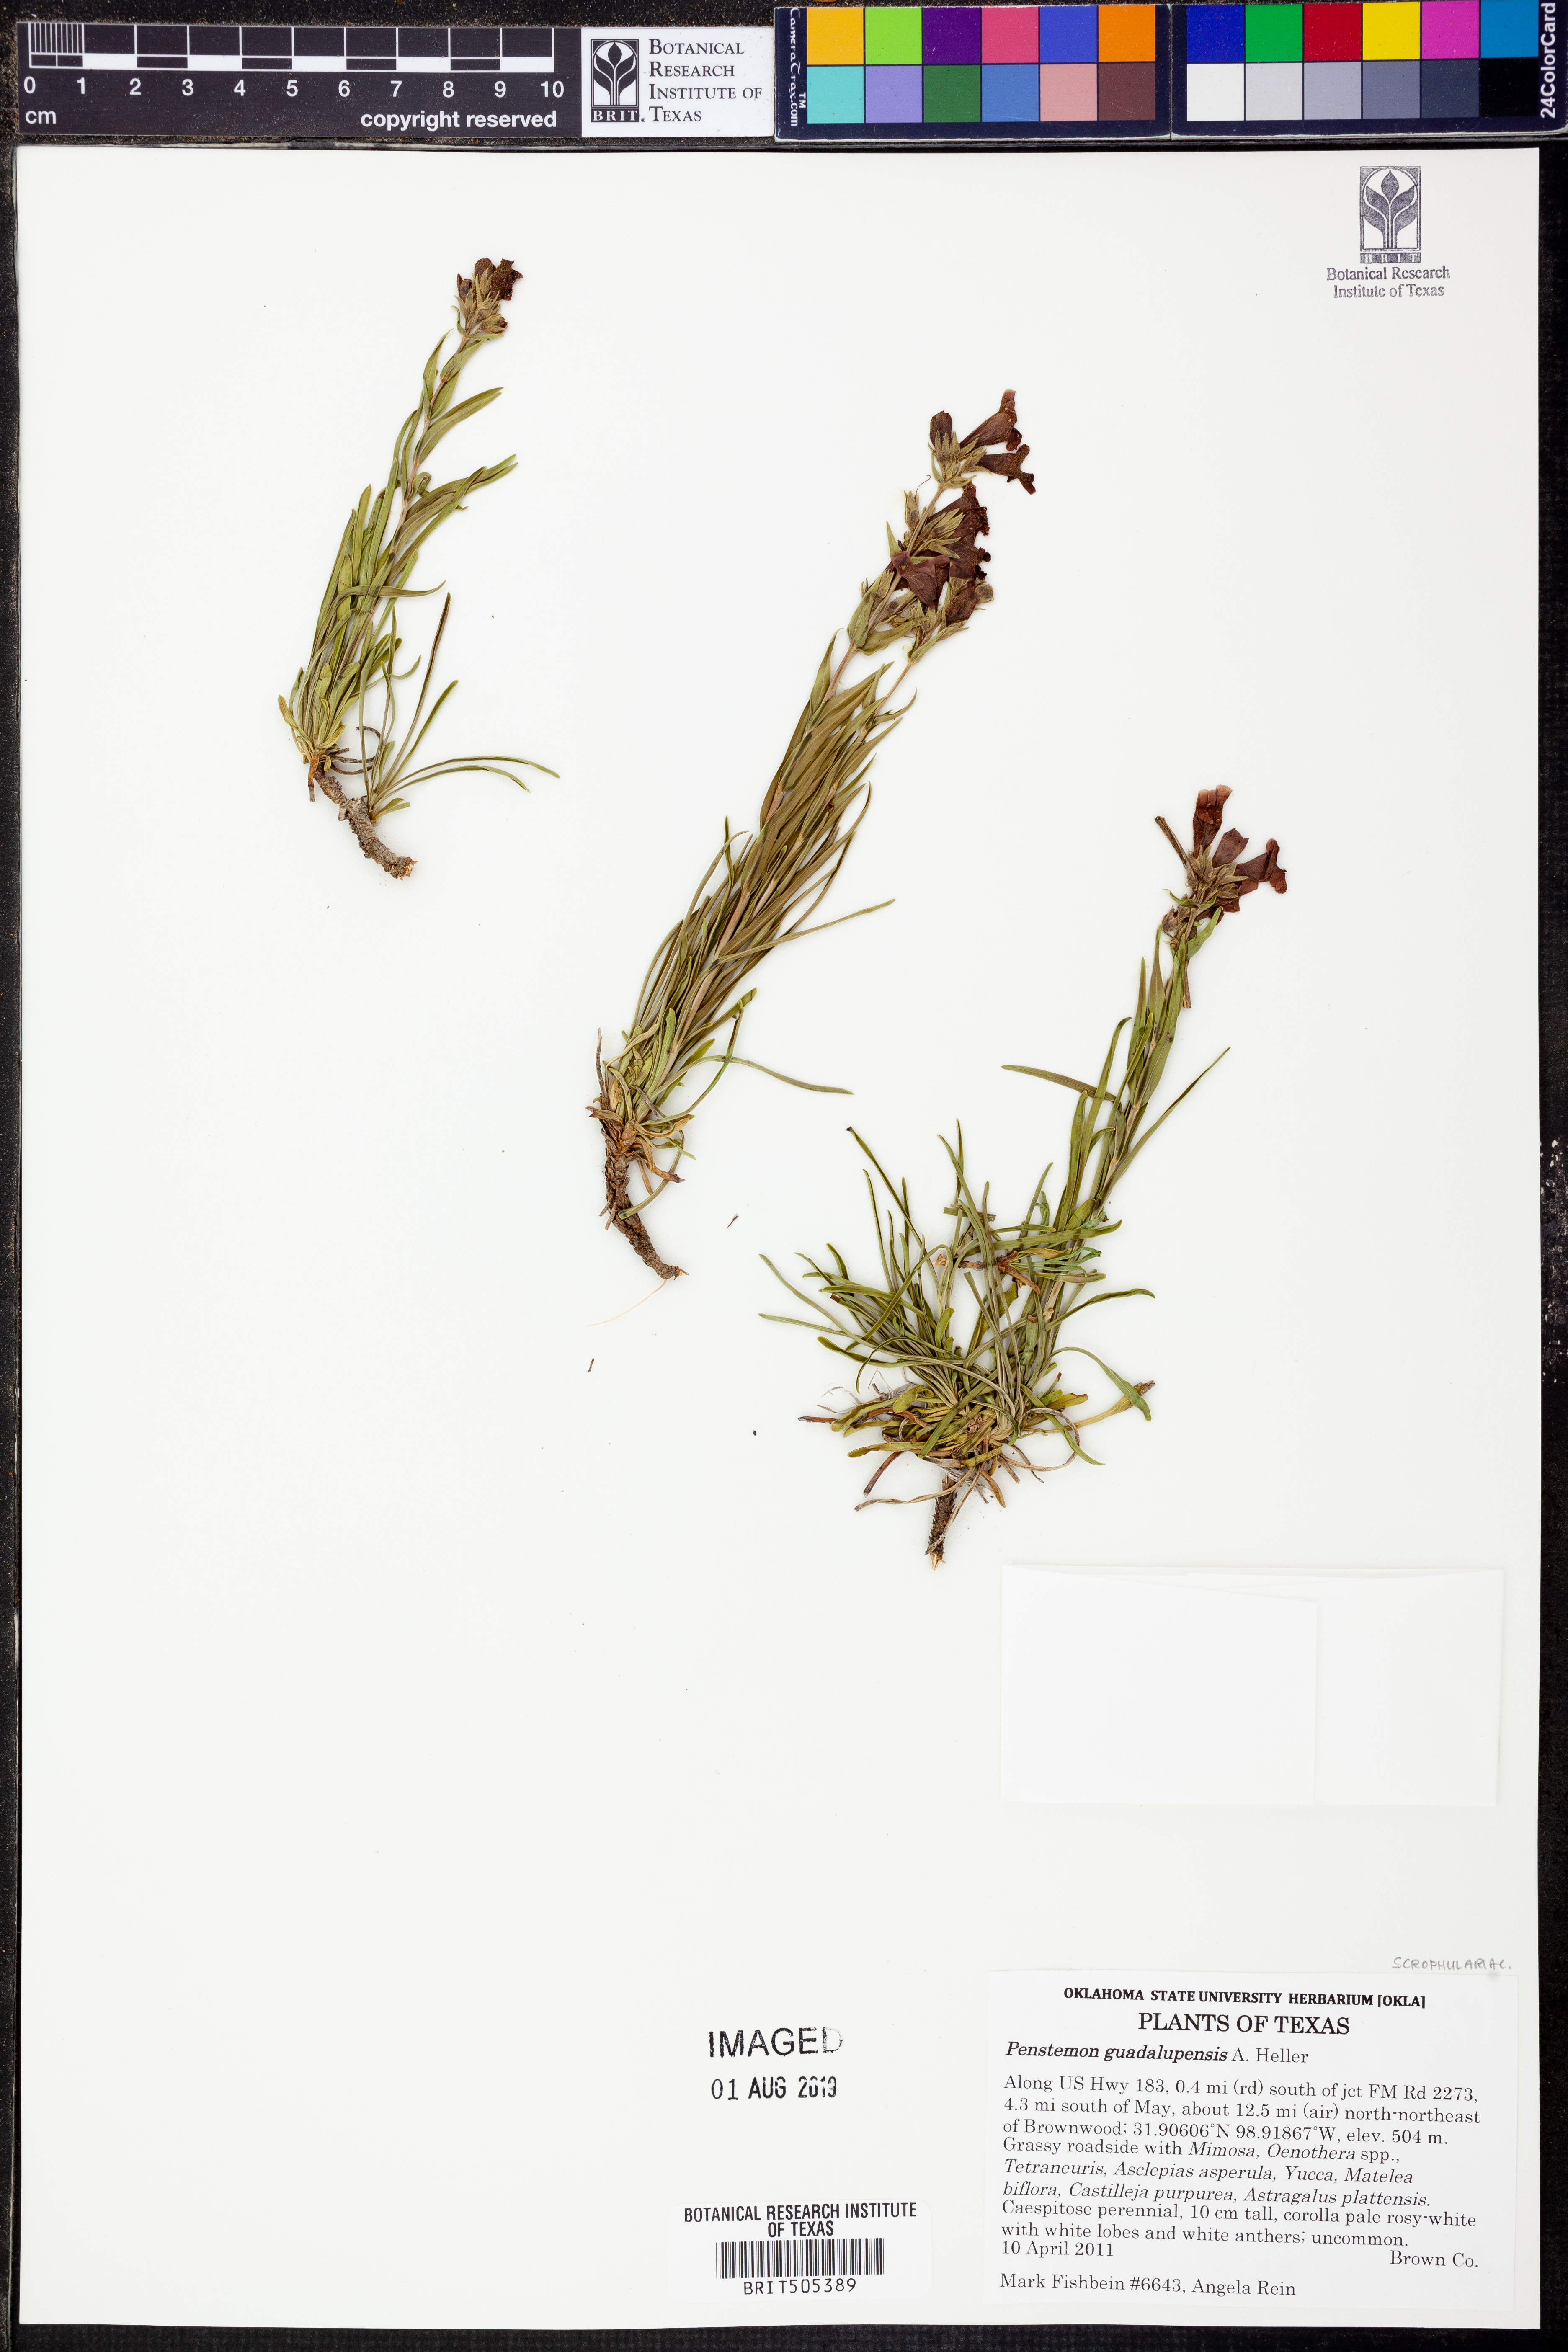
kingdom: Plantae
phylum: Tracheophyta
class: Magnoliopsida
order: Lamiales
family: Plantaginaceae
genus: Penstemon
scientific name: Penstemon guadalupensis
